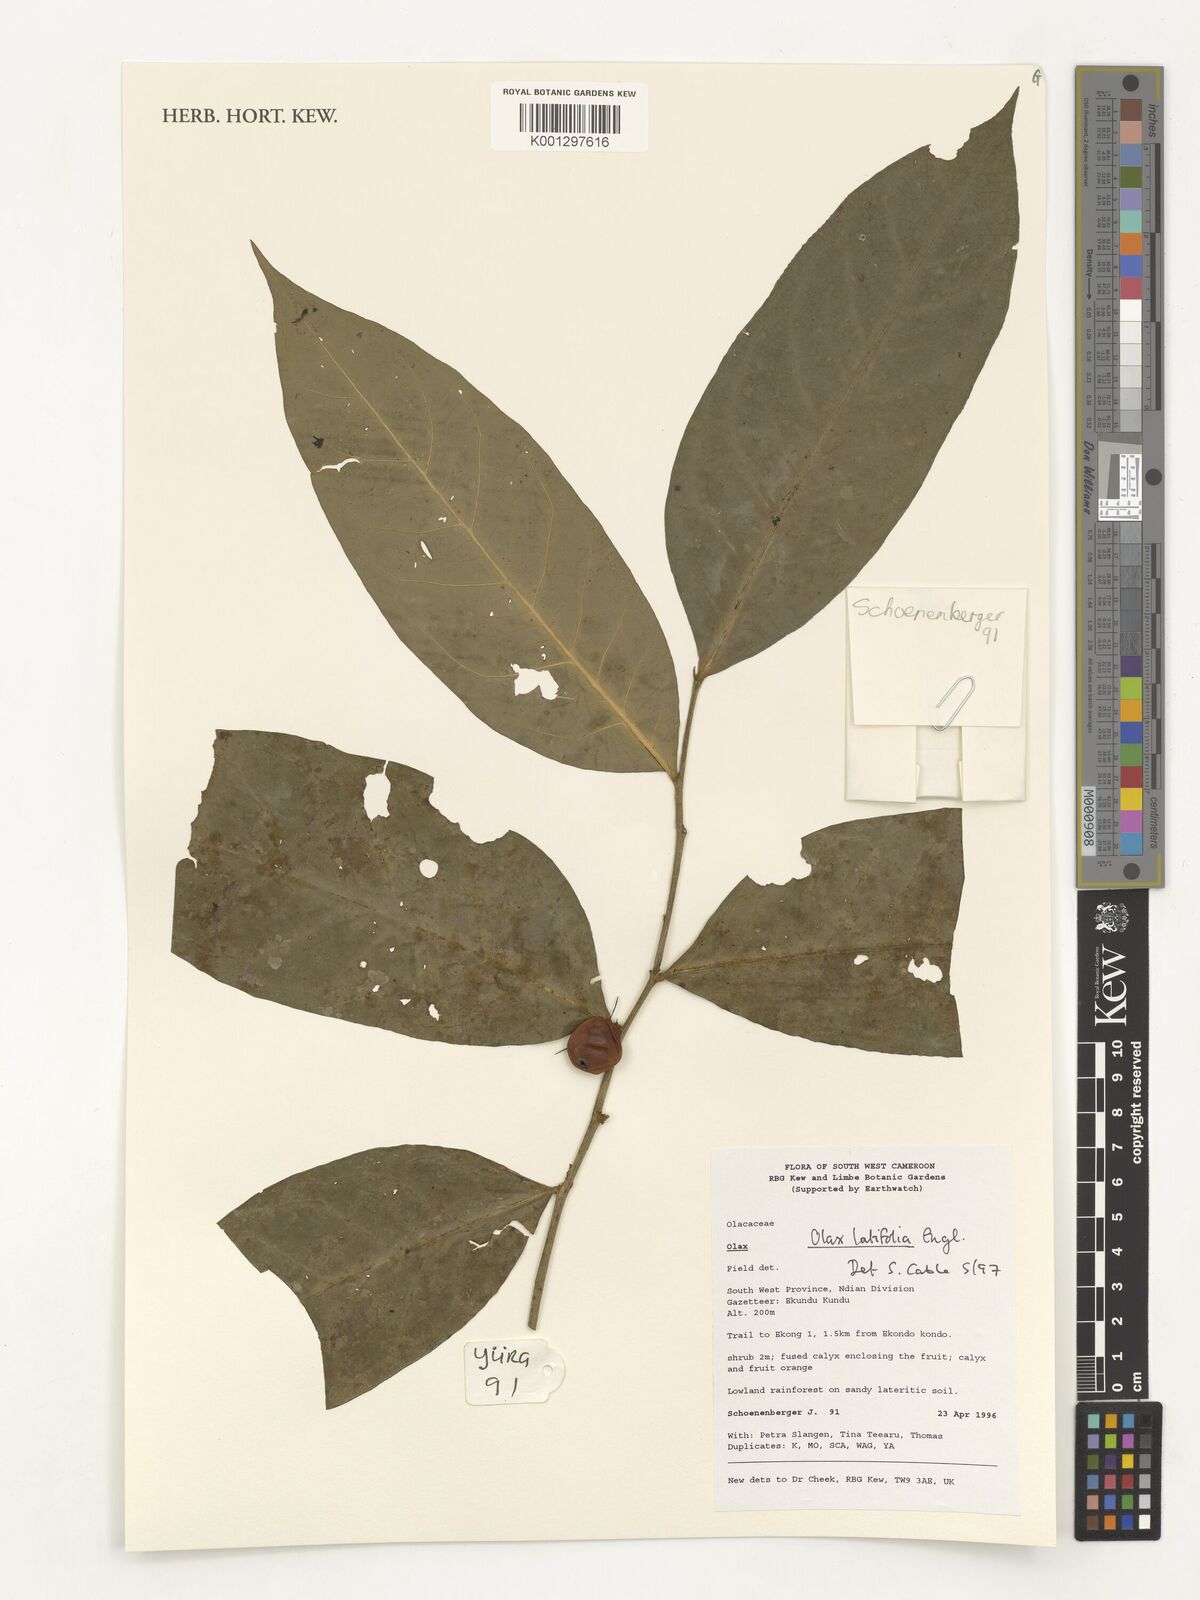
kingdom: Plantae
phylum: Tracheophyta
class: Magnoliopsida
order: Santalales
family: Olacaceae
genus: Olax
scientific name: Olax latifolia
